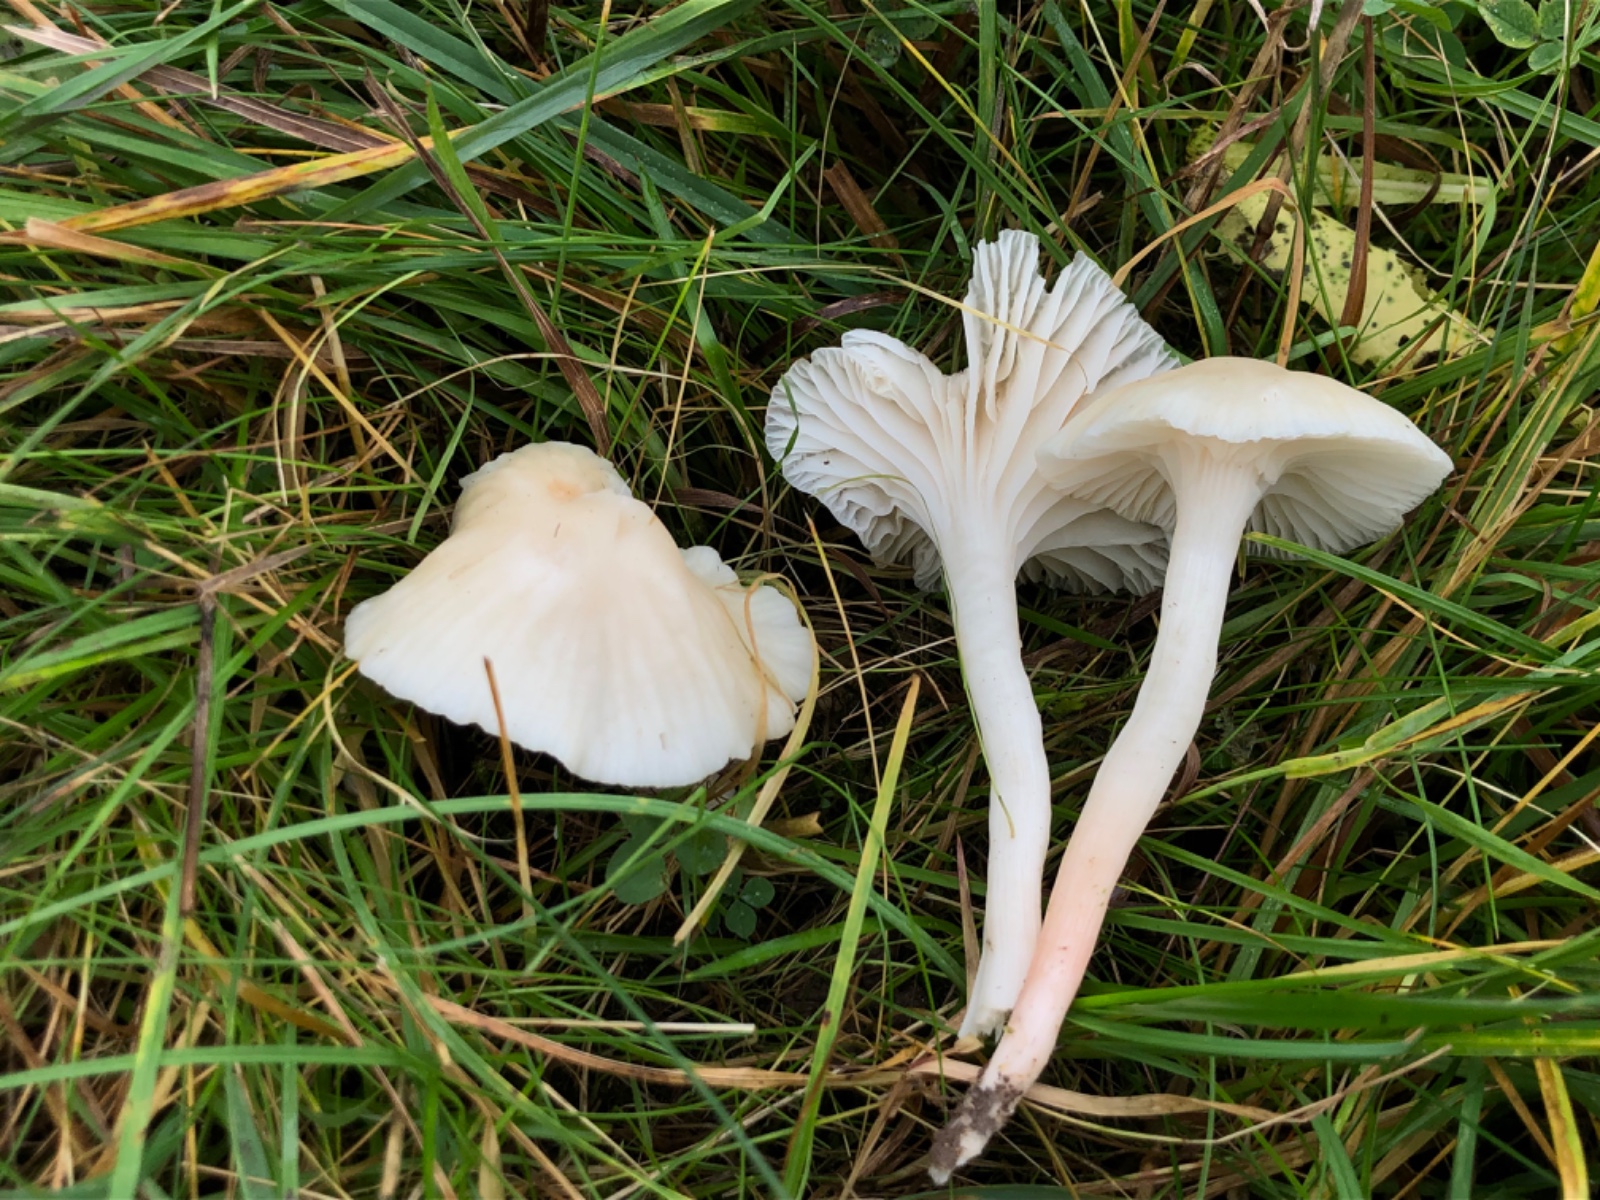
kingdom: Fungi
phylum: Basidiomycota
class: Agaricomycetes
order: Agaricales
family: Hygrophoraceae
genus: Cuphophyllus
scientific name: Cuphophyllus virgineus
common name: snehvid vokshat
